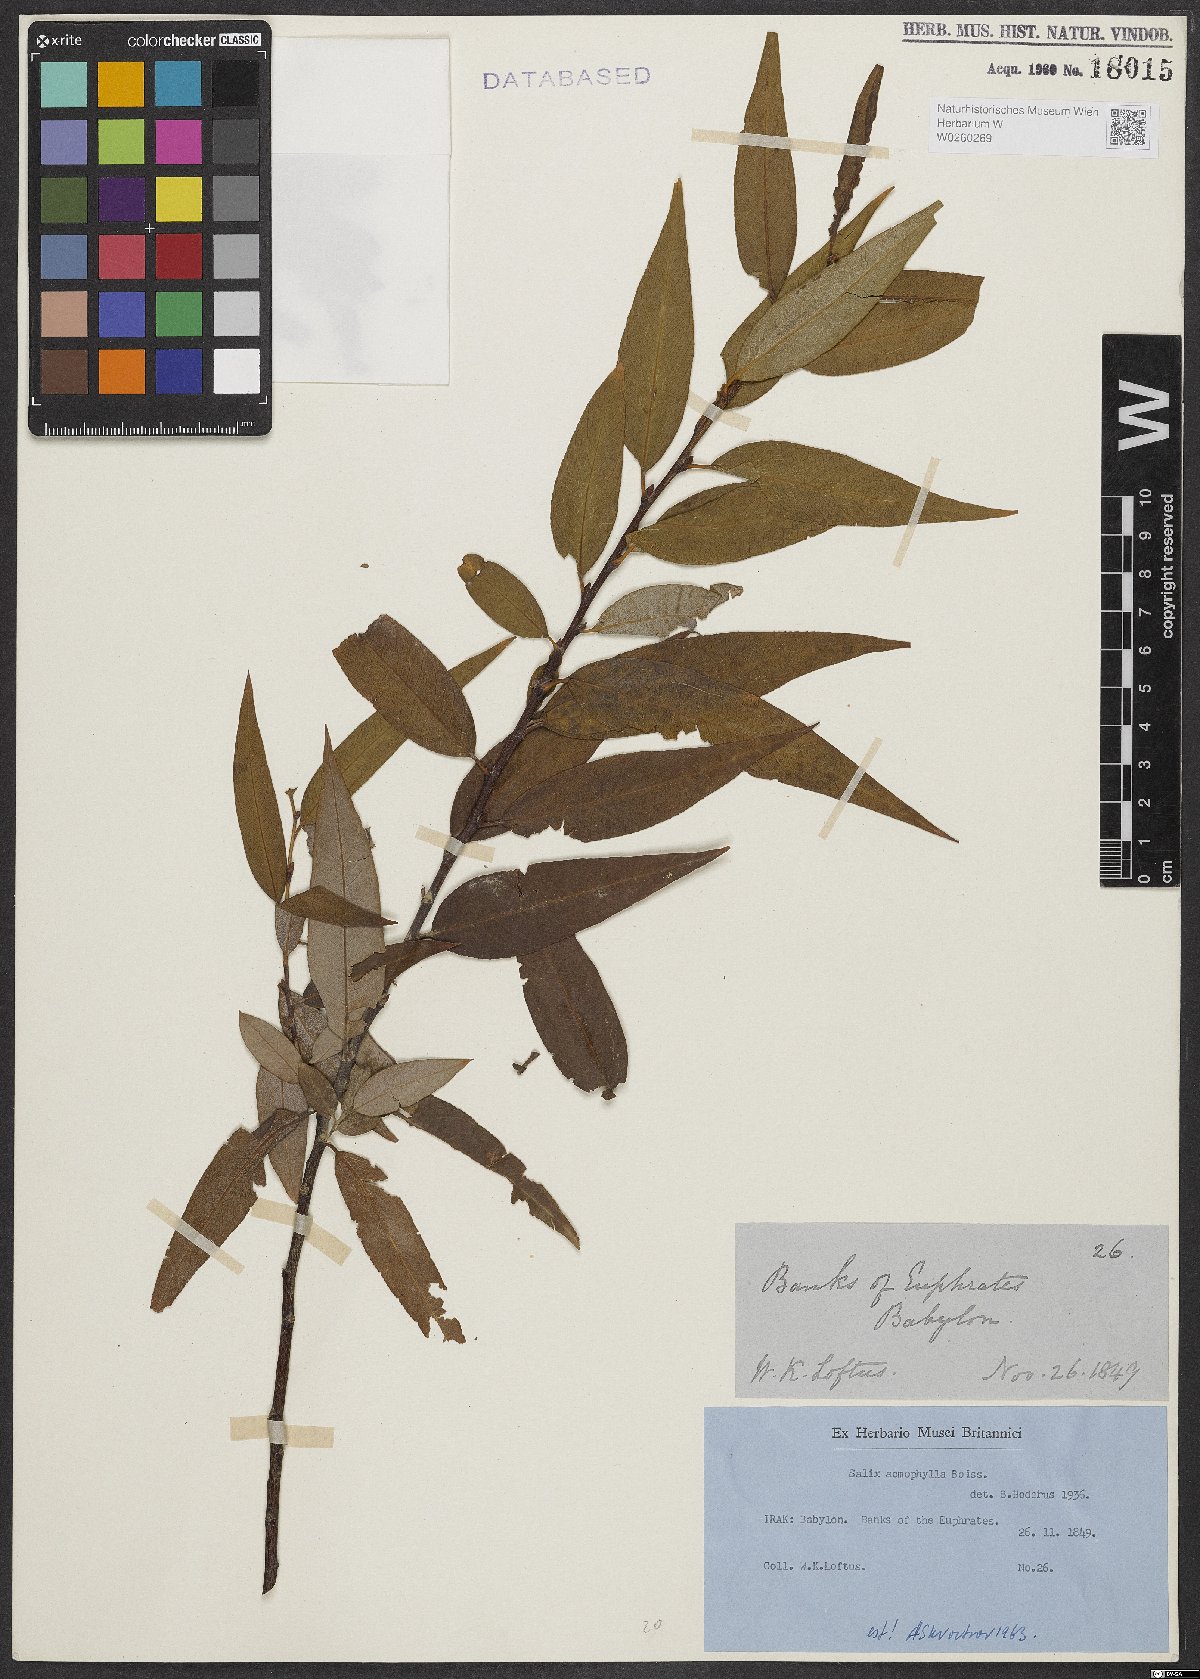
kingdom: Plantae
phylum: Tracheophyta
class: Magnoliopsida
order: Malpighiales
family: Salicaceae
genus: Salix
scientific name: Salix acmophylla
